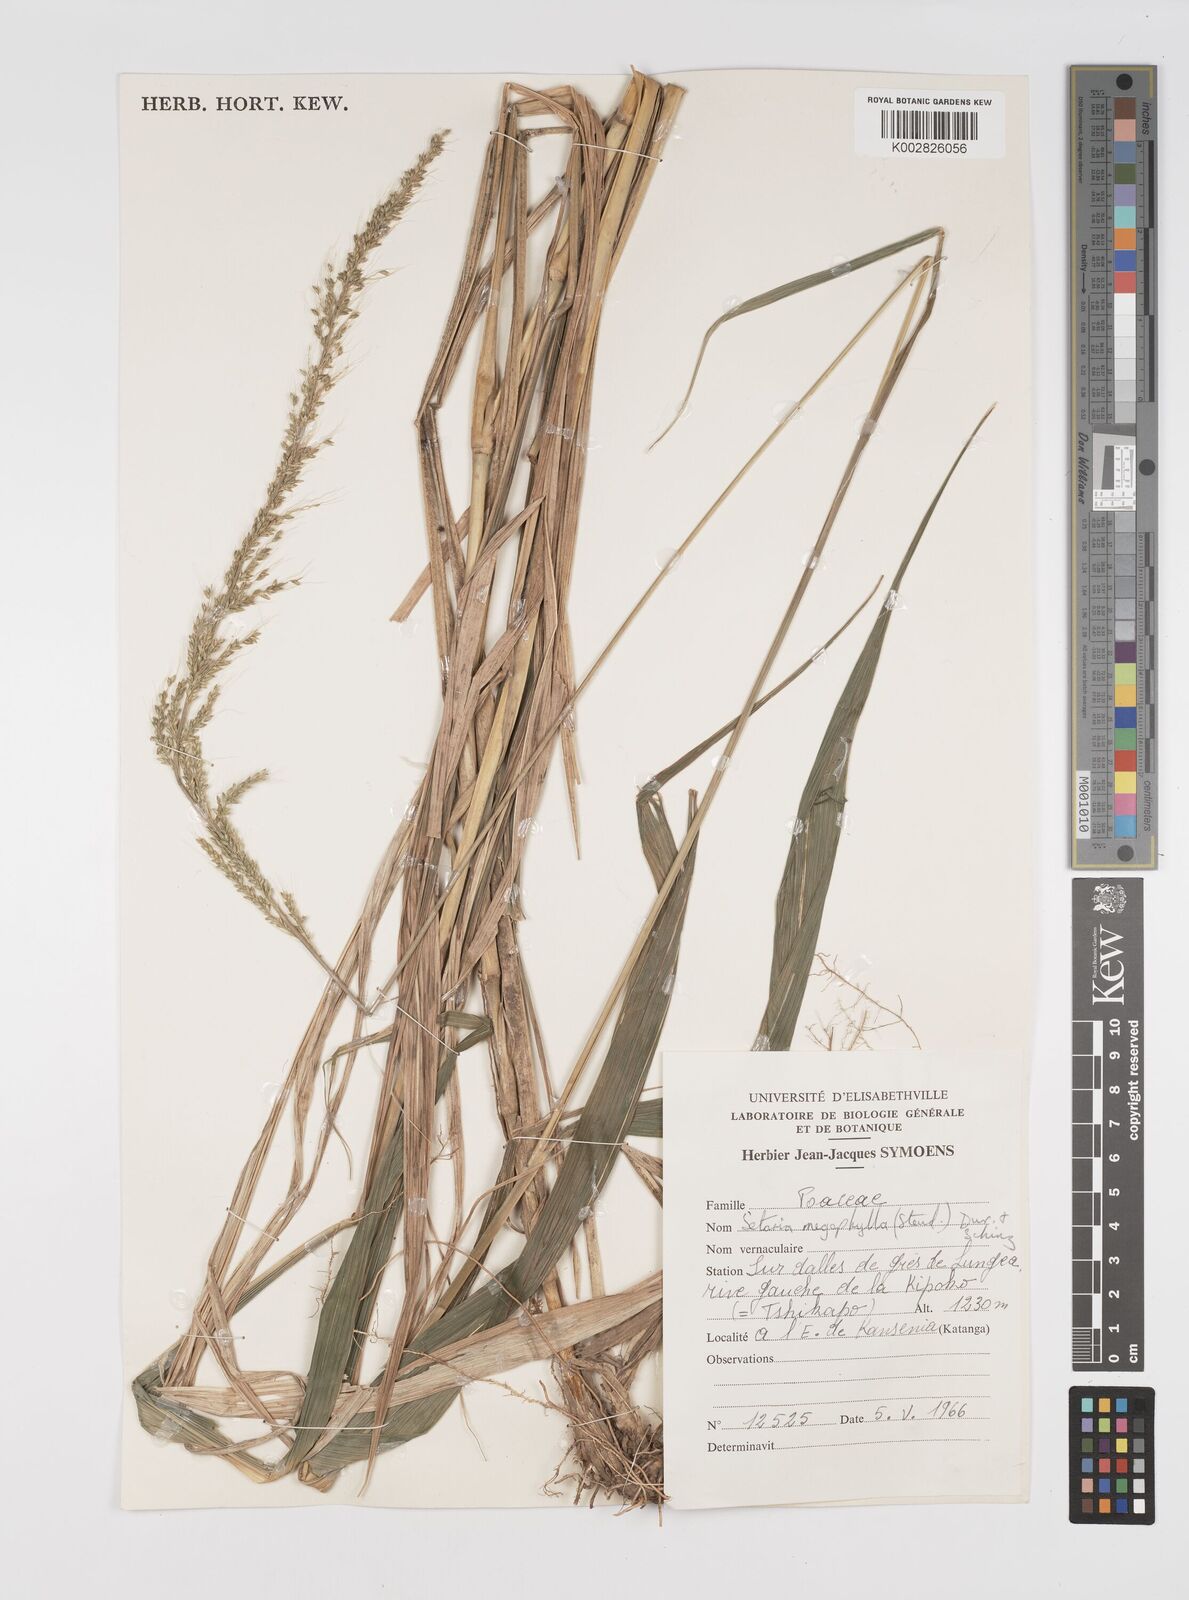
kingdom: Plantae
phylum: Tracheophyta
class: Liliopsida
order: Poales
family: Poaceae
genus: Setaria
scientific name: Setaria megaphylla
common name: Bigleaf bristlegrass
